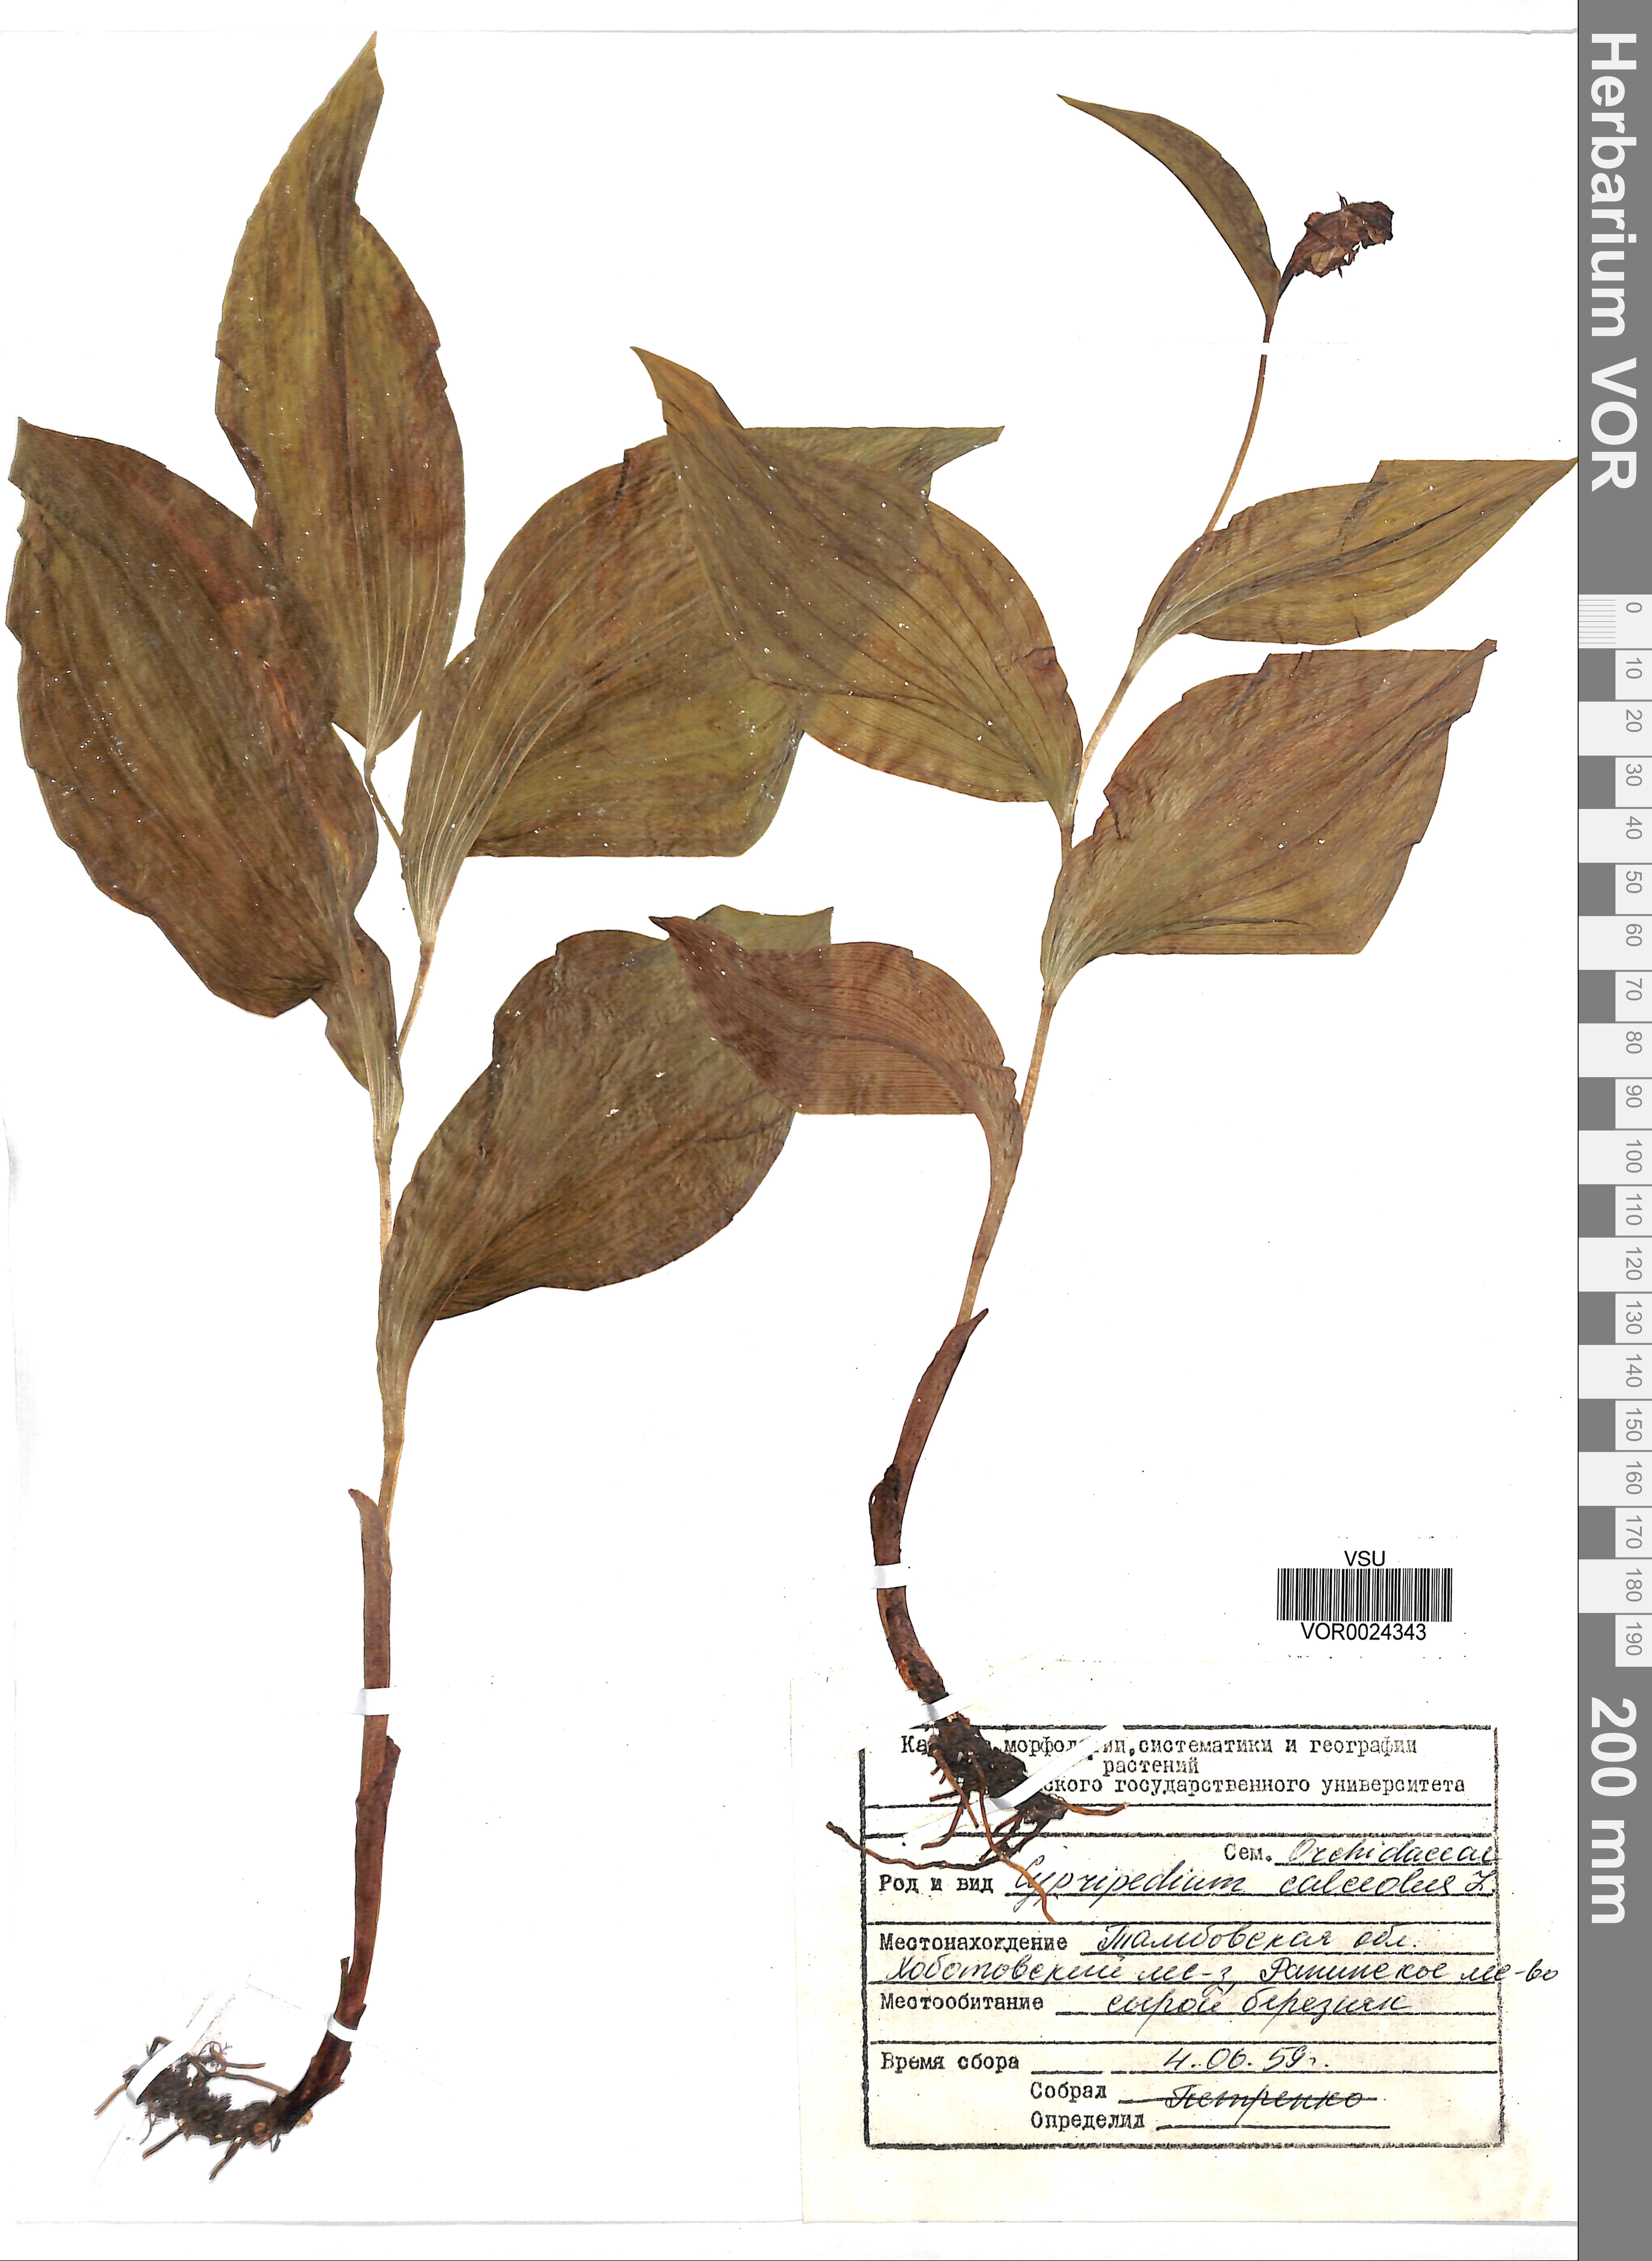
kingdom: Plantae
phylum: Tracheophyta
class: Liliopsida
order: Asparagales
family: Orchidaceae
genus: Cypripedium
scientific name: Cypripedium calceolus
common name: Lady's-slipper
